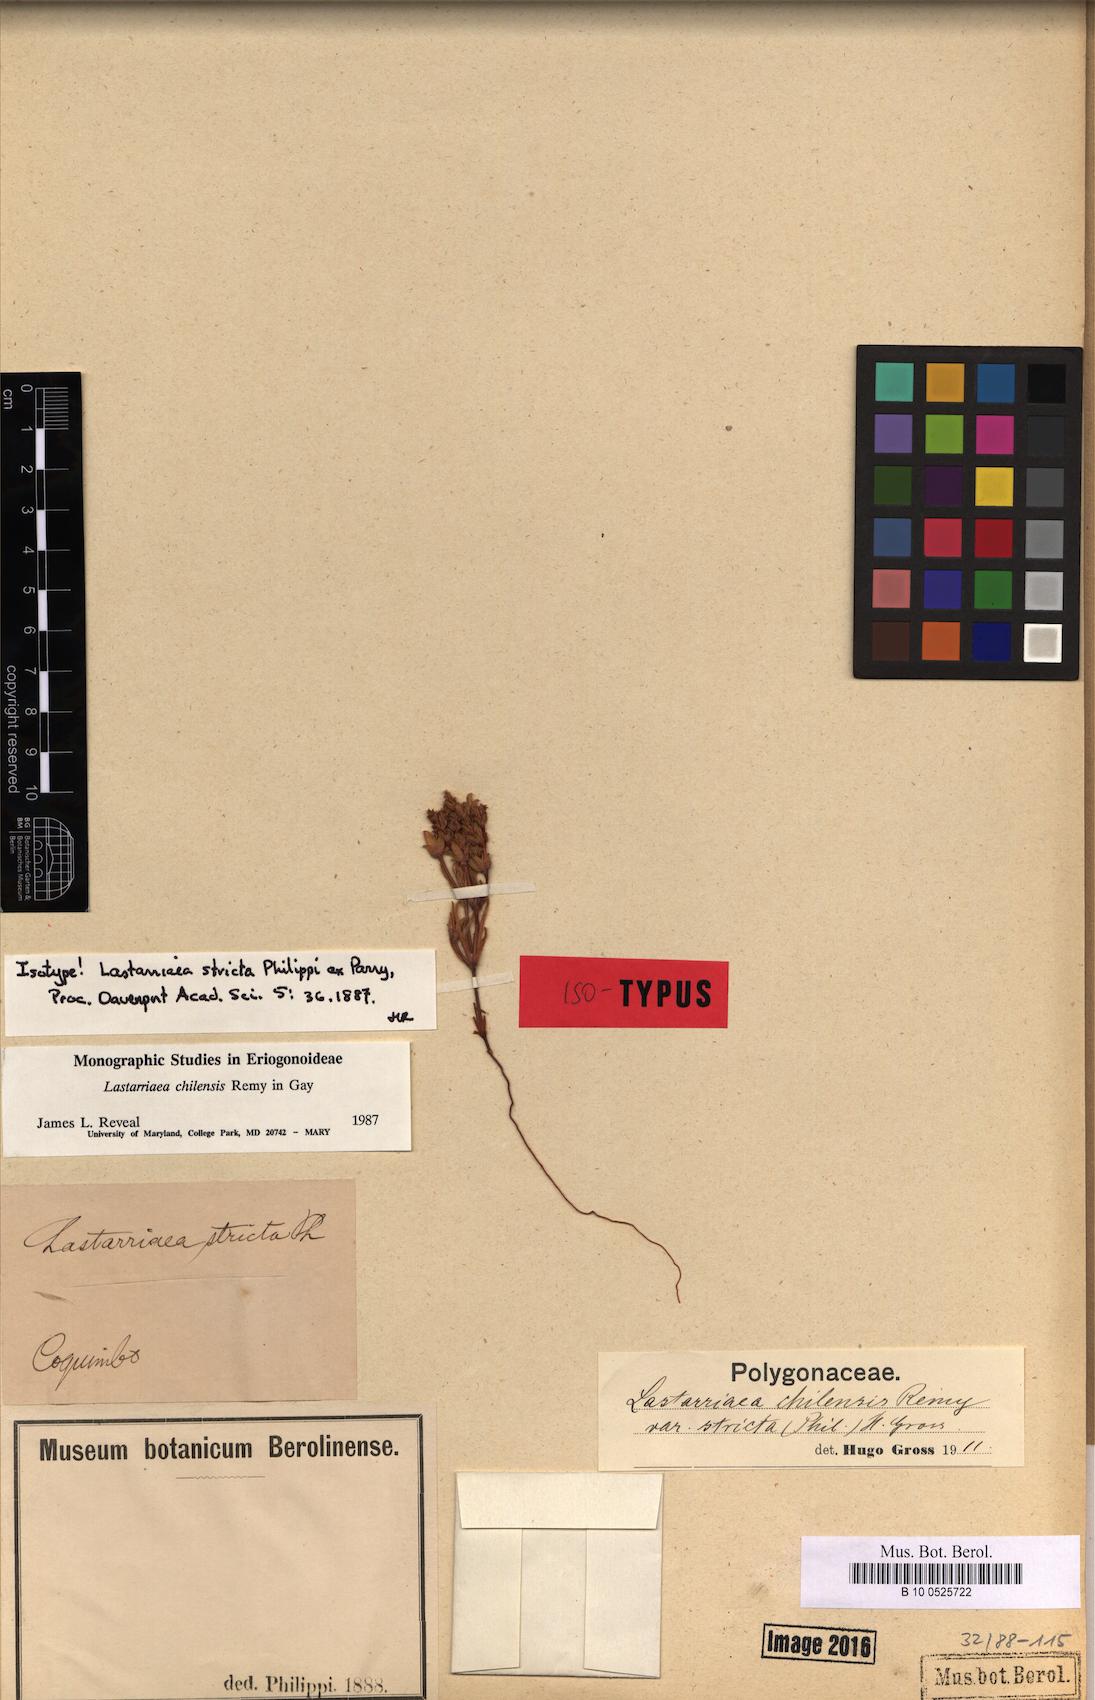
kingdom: Plantae
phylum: Tracheophyta
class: Magnoliopsida
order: Caryophyllales
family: Polygonaceae
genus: Lastarriaea
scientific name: Lastarriaea chilensis
